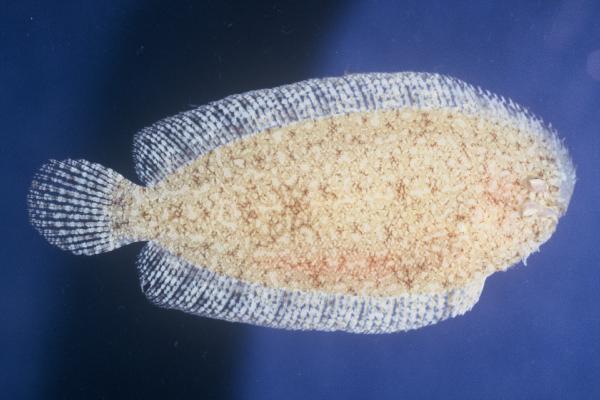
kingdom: Animalia
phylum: Chordata
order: Pleuronectiformes
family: Soleidae
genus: Aseraggodes
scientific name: Aseraggodes diringeri
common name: Diringer's sole
